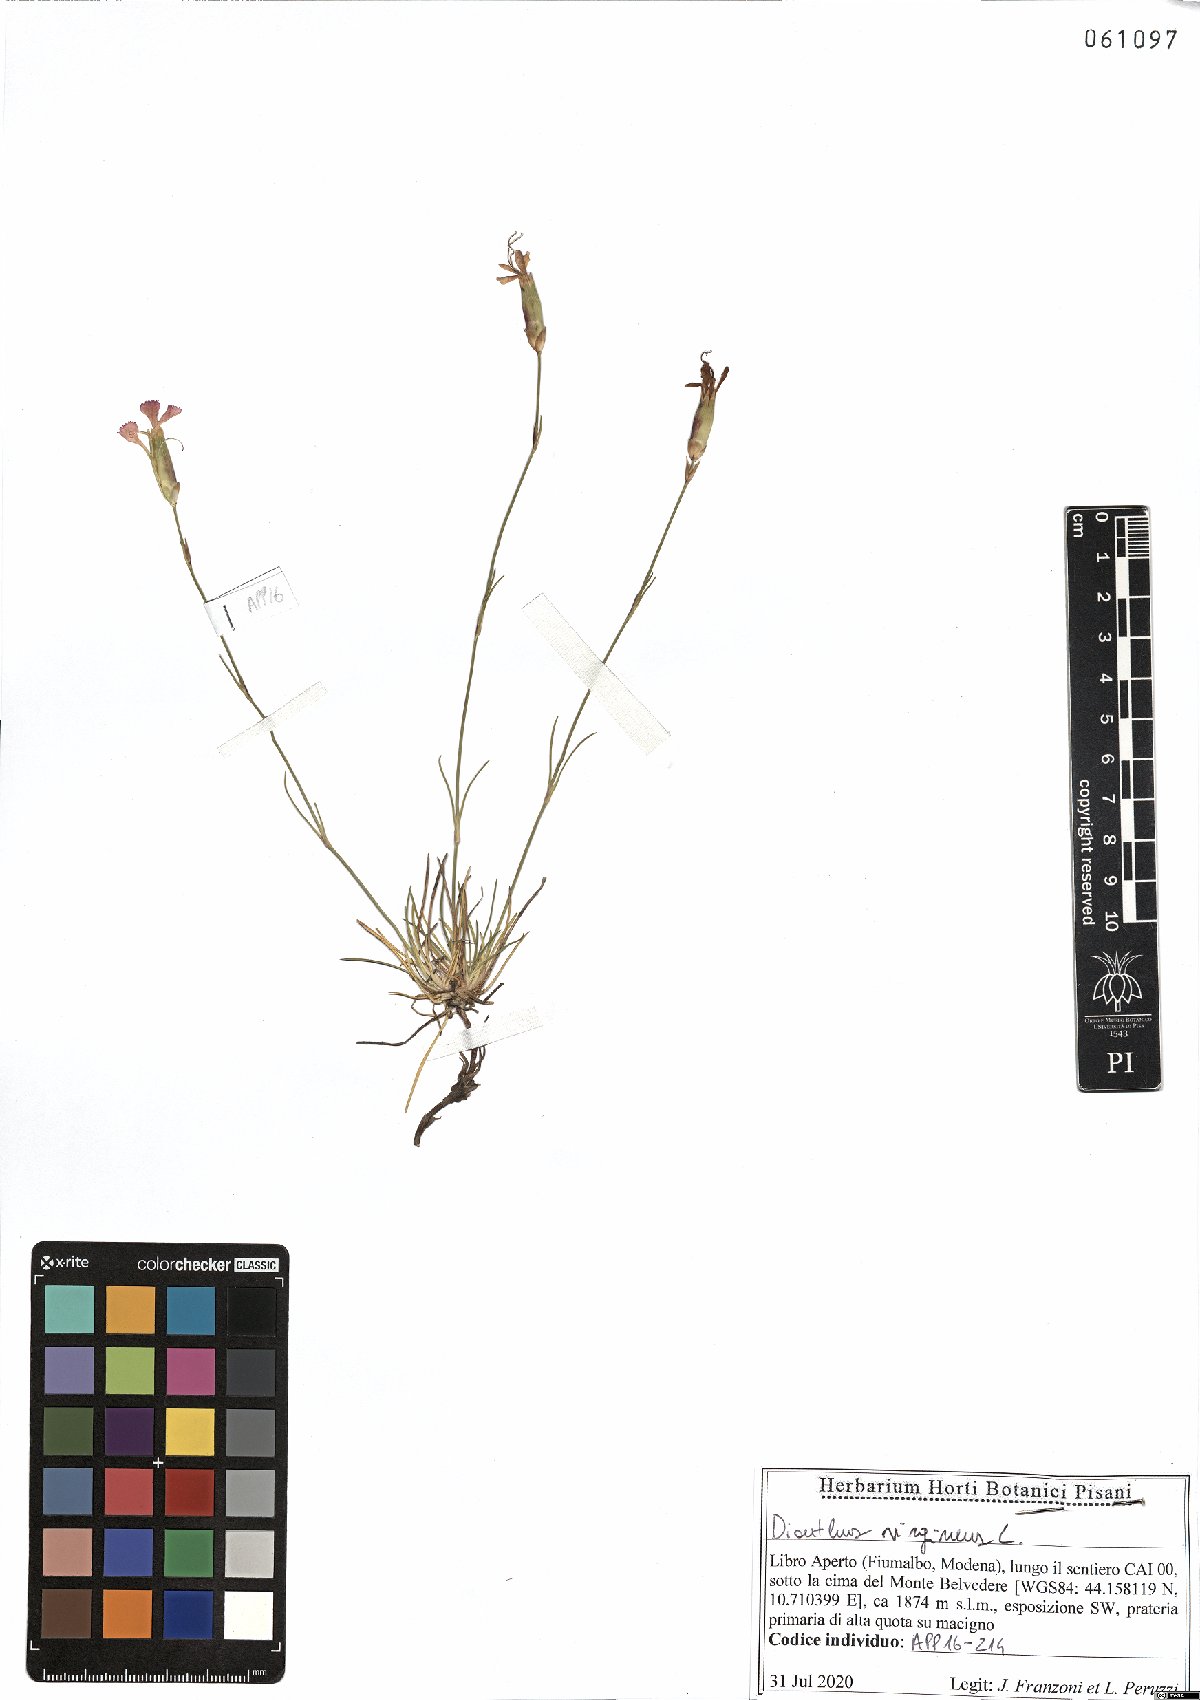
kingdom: Plantae
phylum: Tracheophyta
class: Magnoliopsida
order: Caryophyllales
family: Caryophyllaceae
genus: Dianthus
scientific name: Dianthus virgineus
